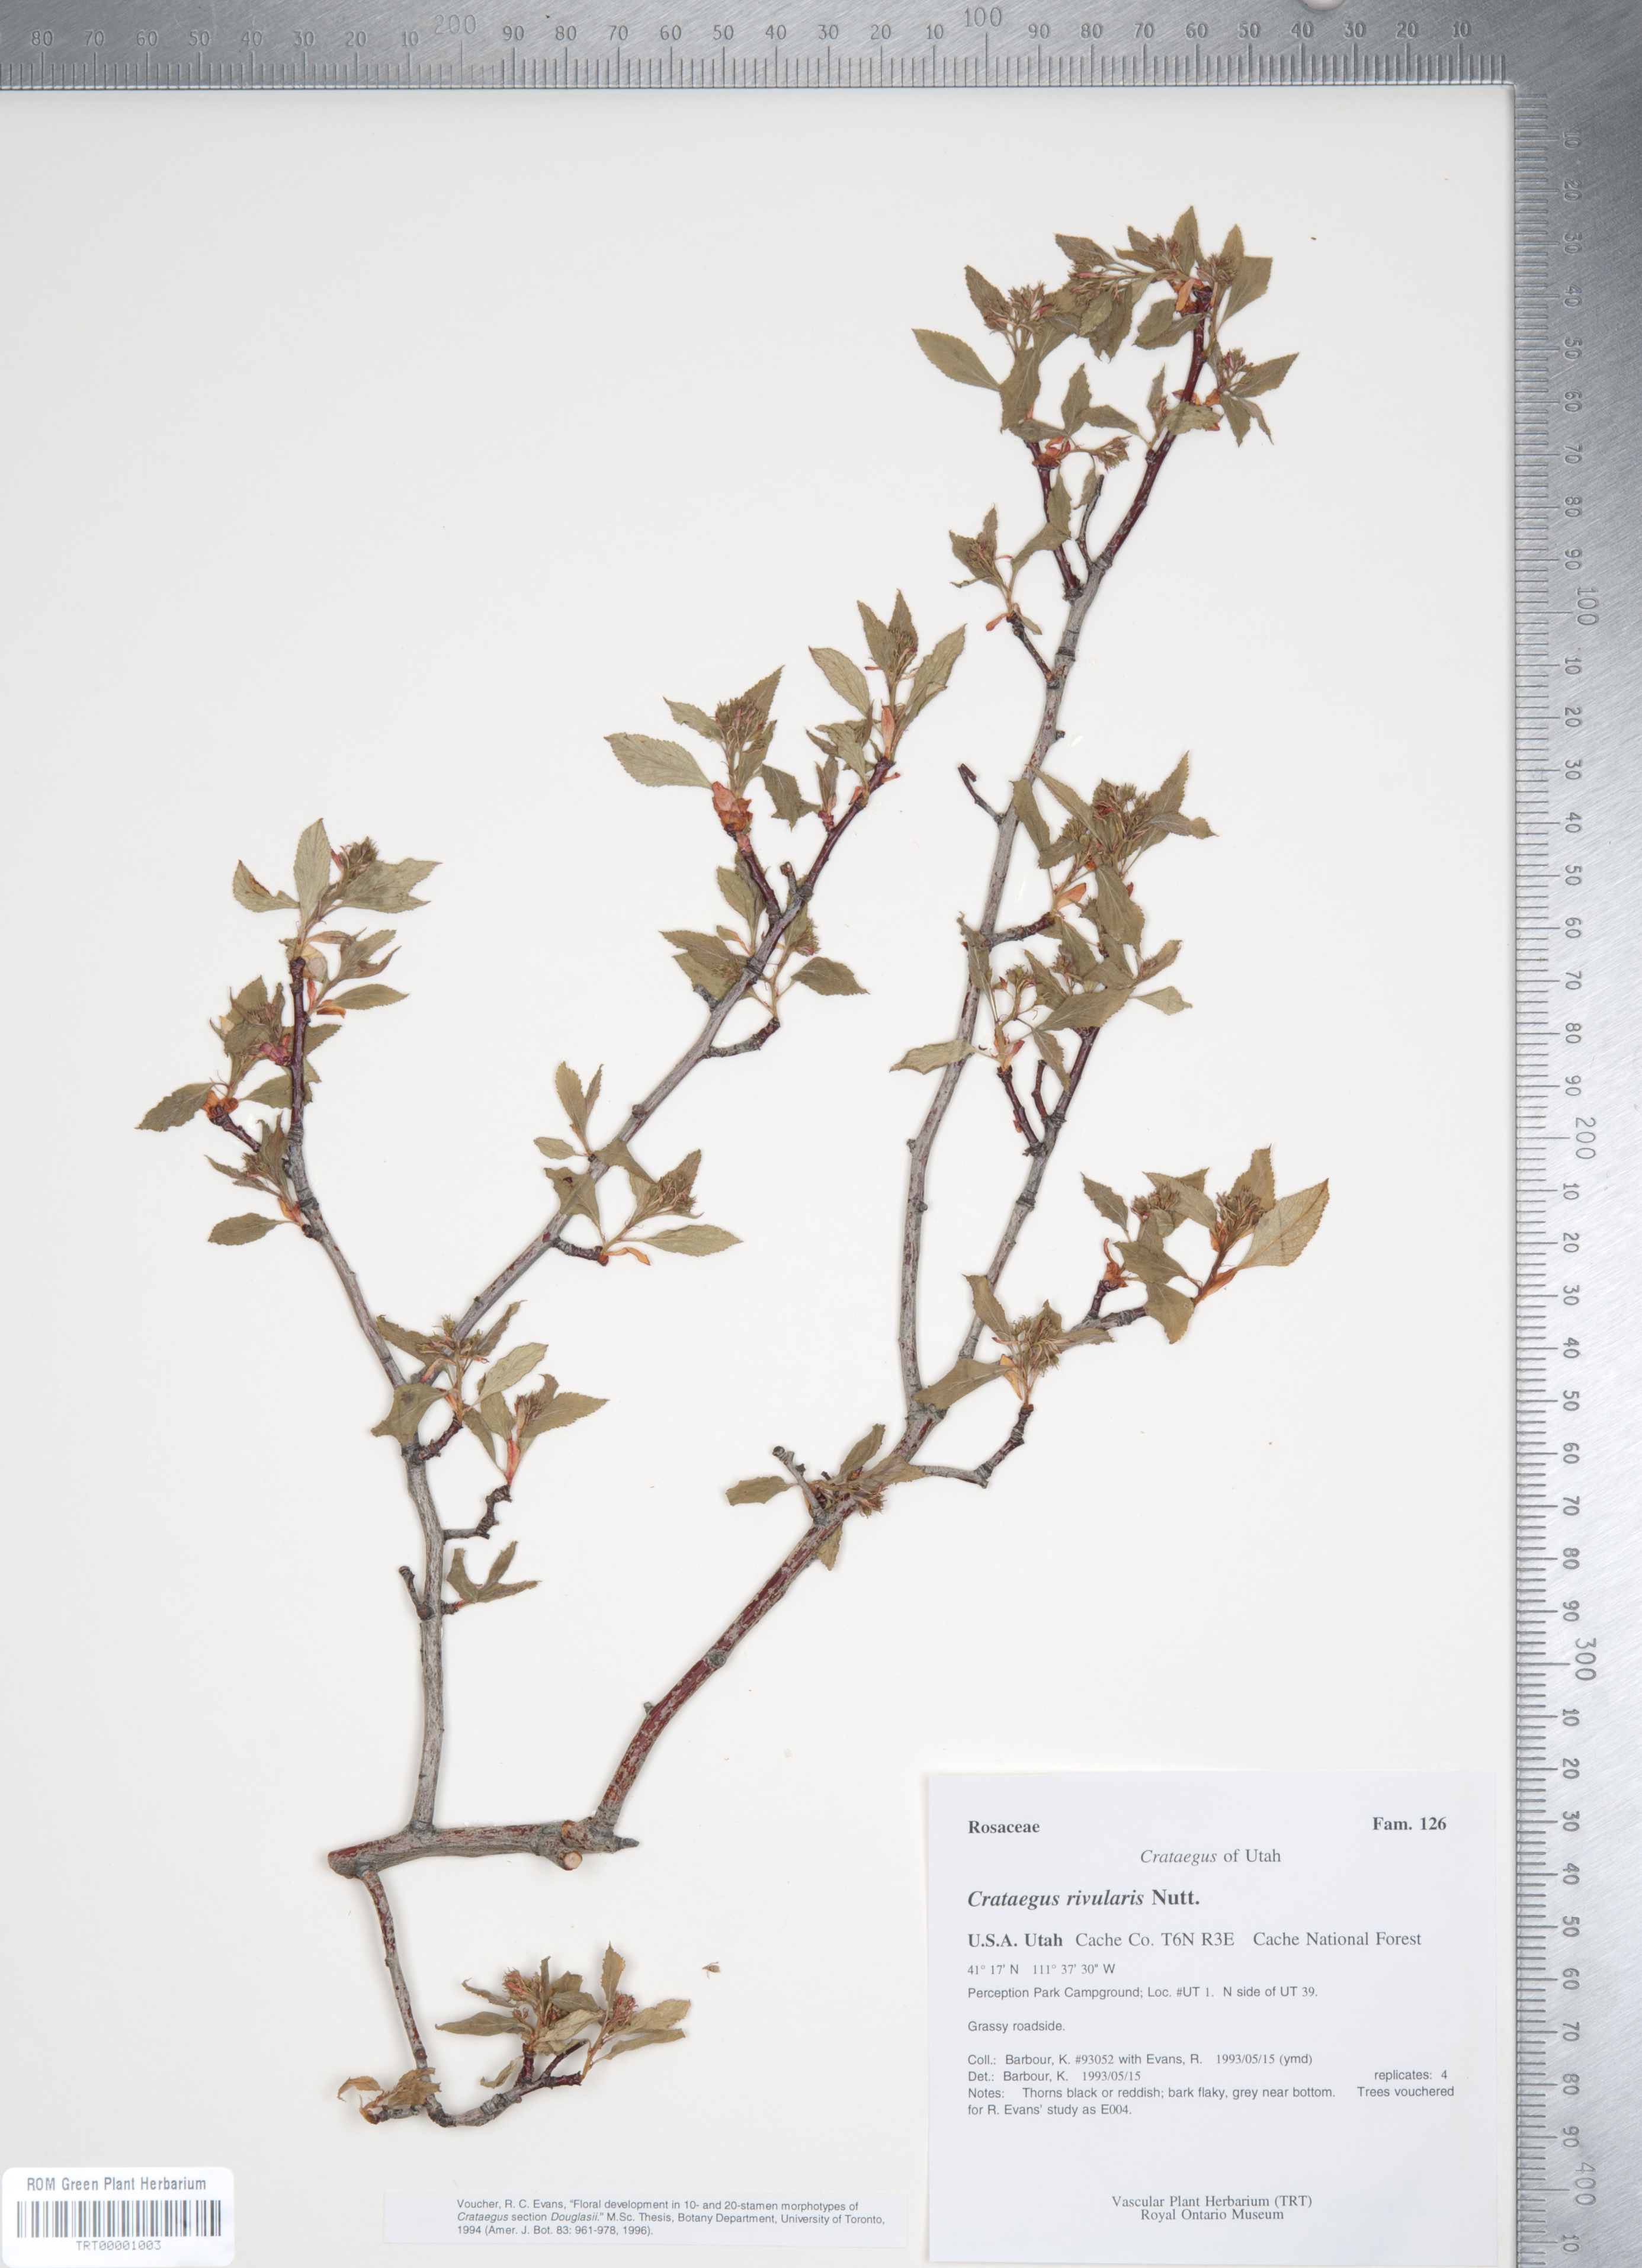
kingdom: Plantae
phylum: Tracheophyta
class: Magnoliopsida
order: Rosales
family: Rosaceae
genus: Crataegus
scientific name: Crataegus rivularis
